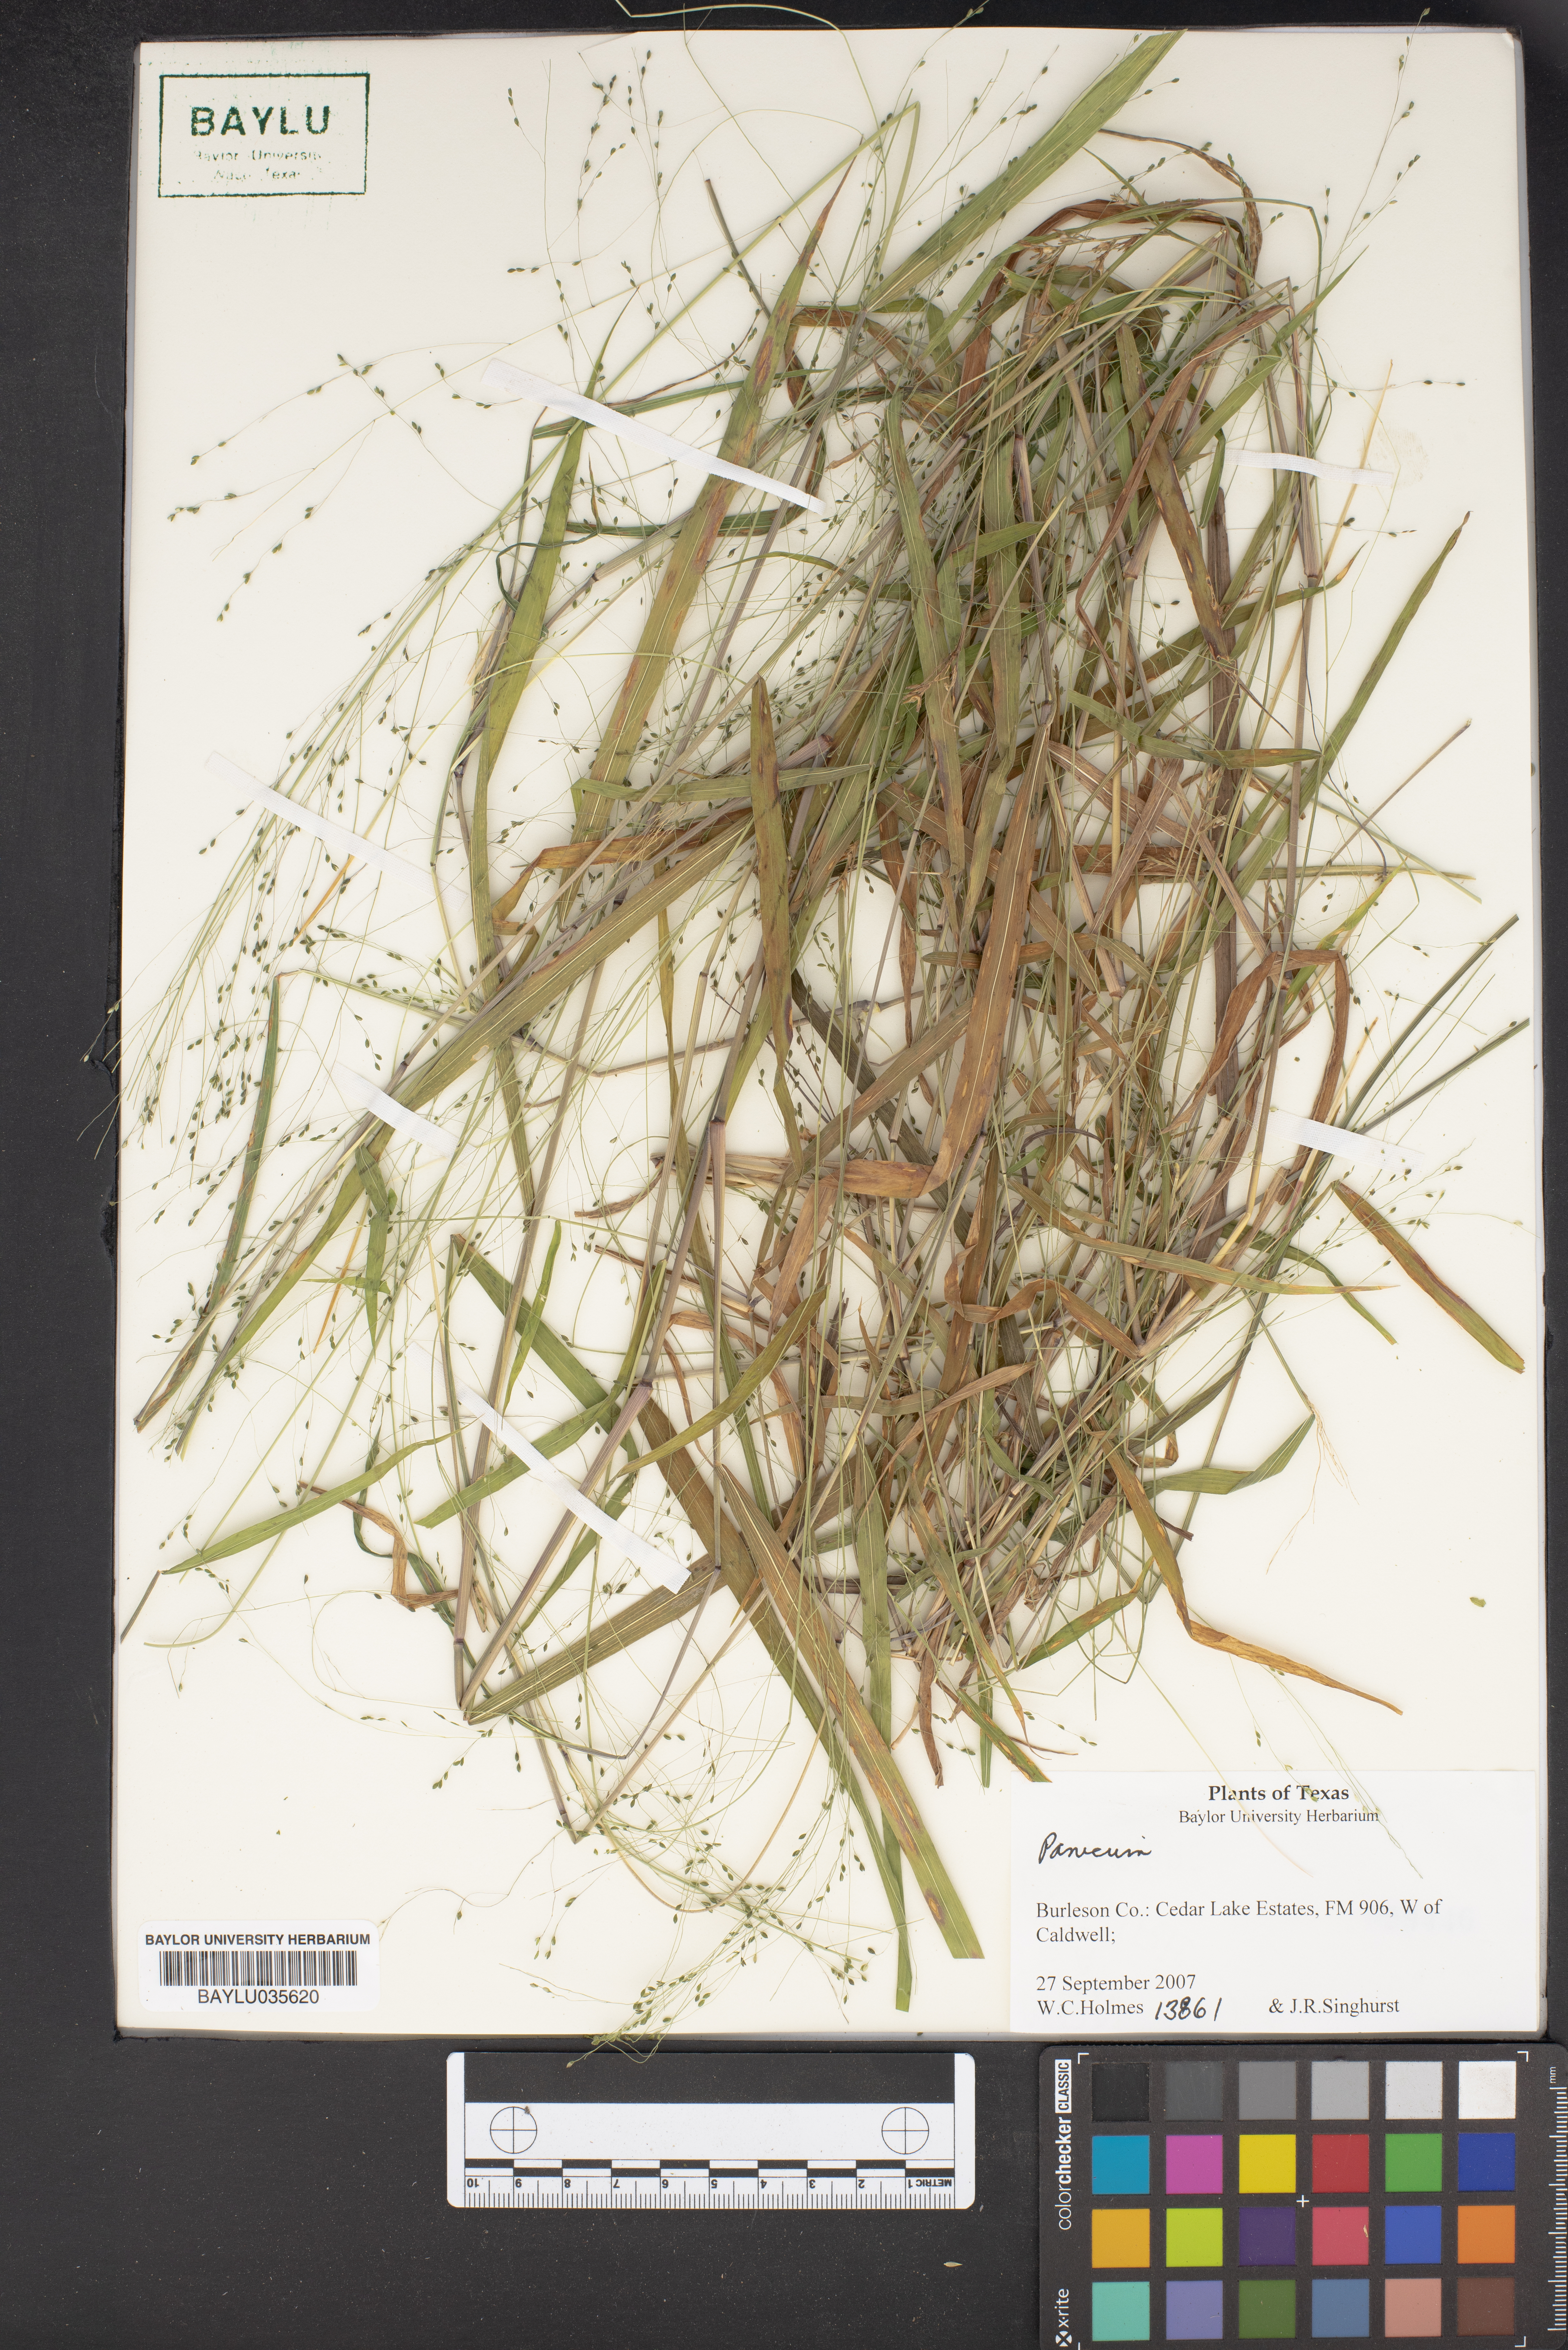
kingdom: Plantae
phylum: Tracheophyta
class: Liliopsida
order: Poales
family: Poaceae
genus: Panicum
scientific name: Panicum
